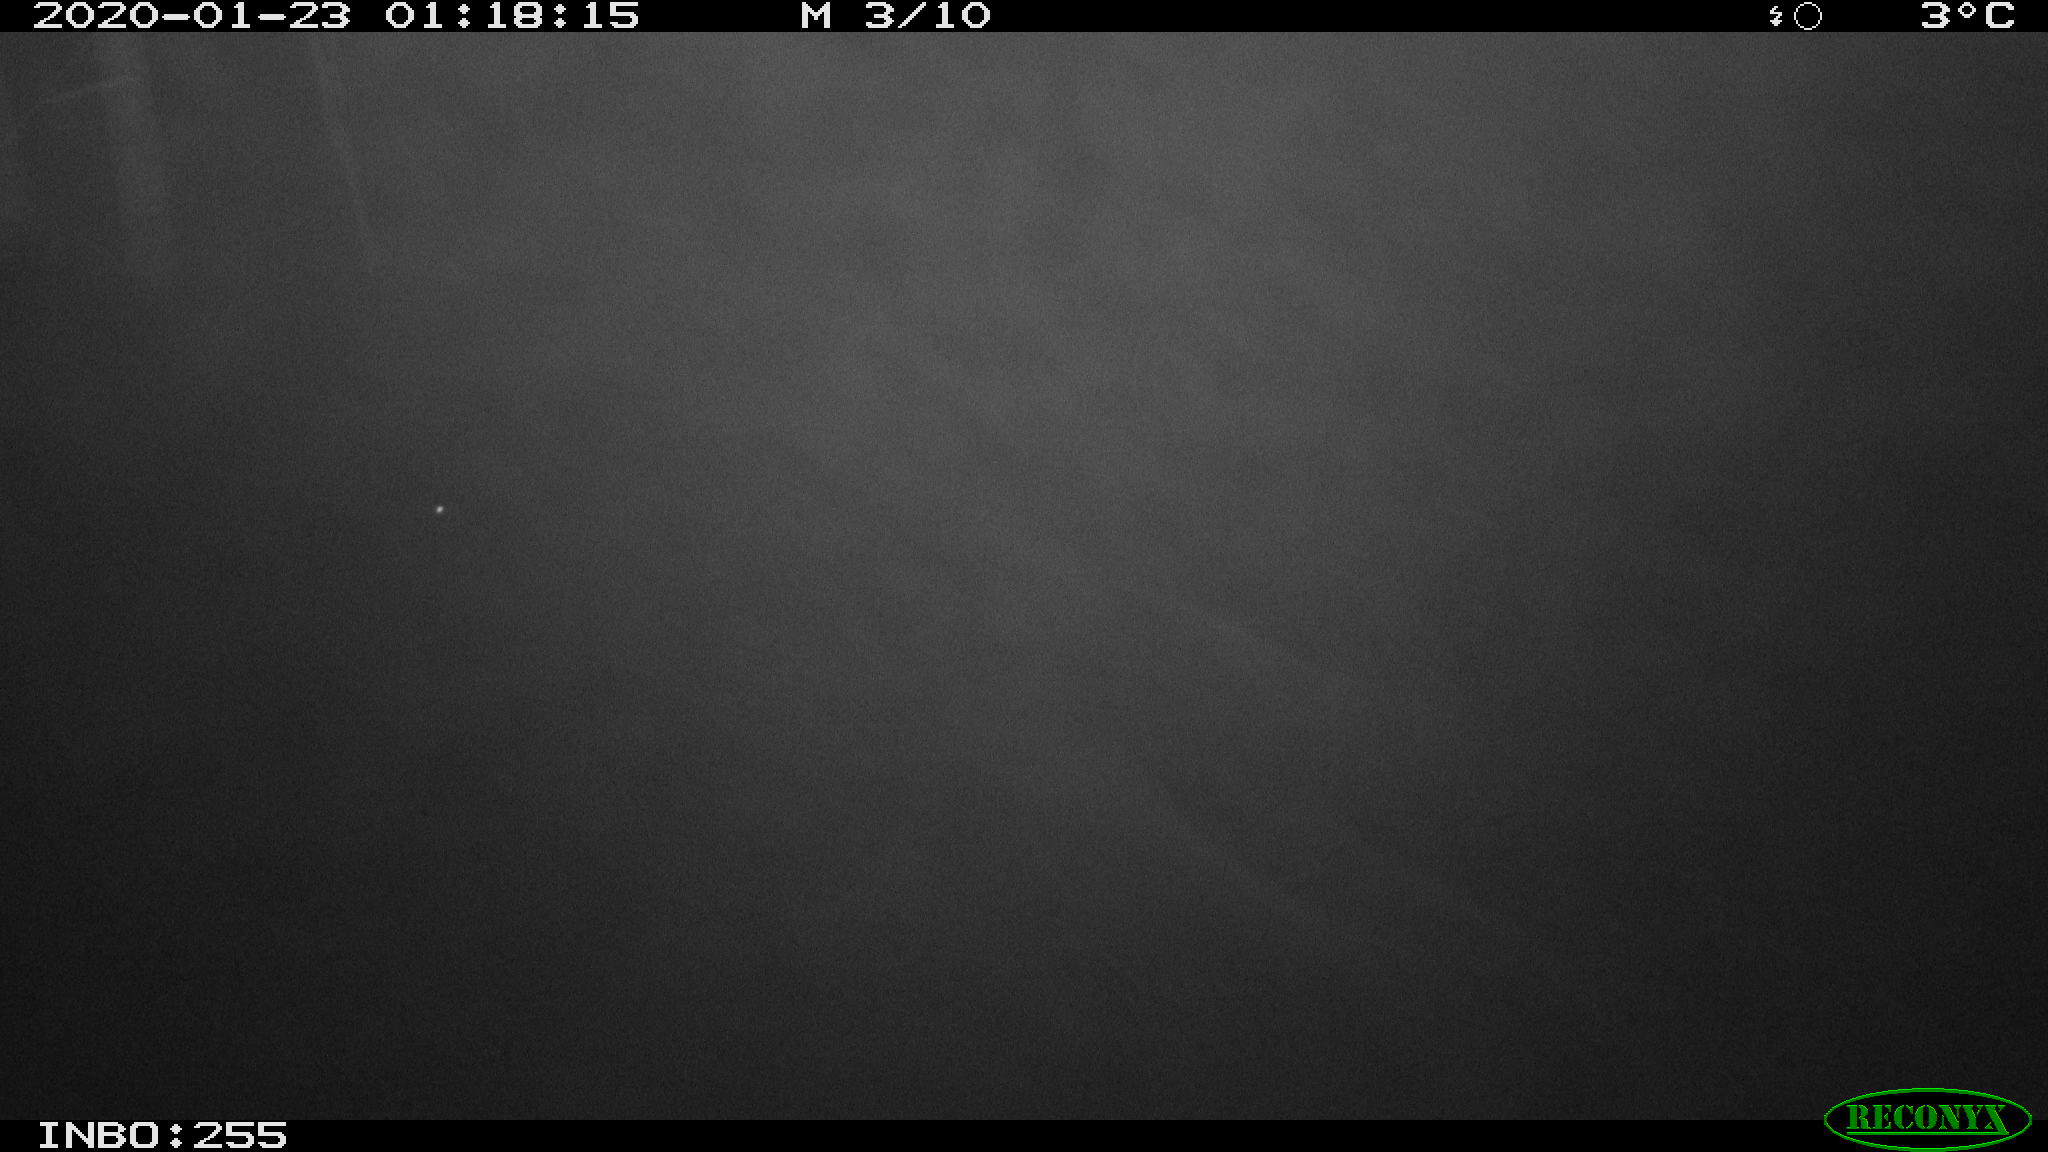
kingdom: Animalia
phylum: Chordata
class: Mammalia
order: Rodentia
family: Cricetidae
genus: Ondatra
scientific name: Ondatra zibethicus
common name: Muskrat
